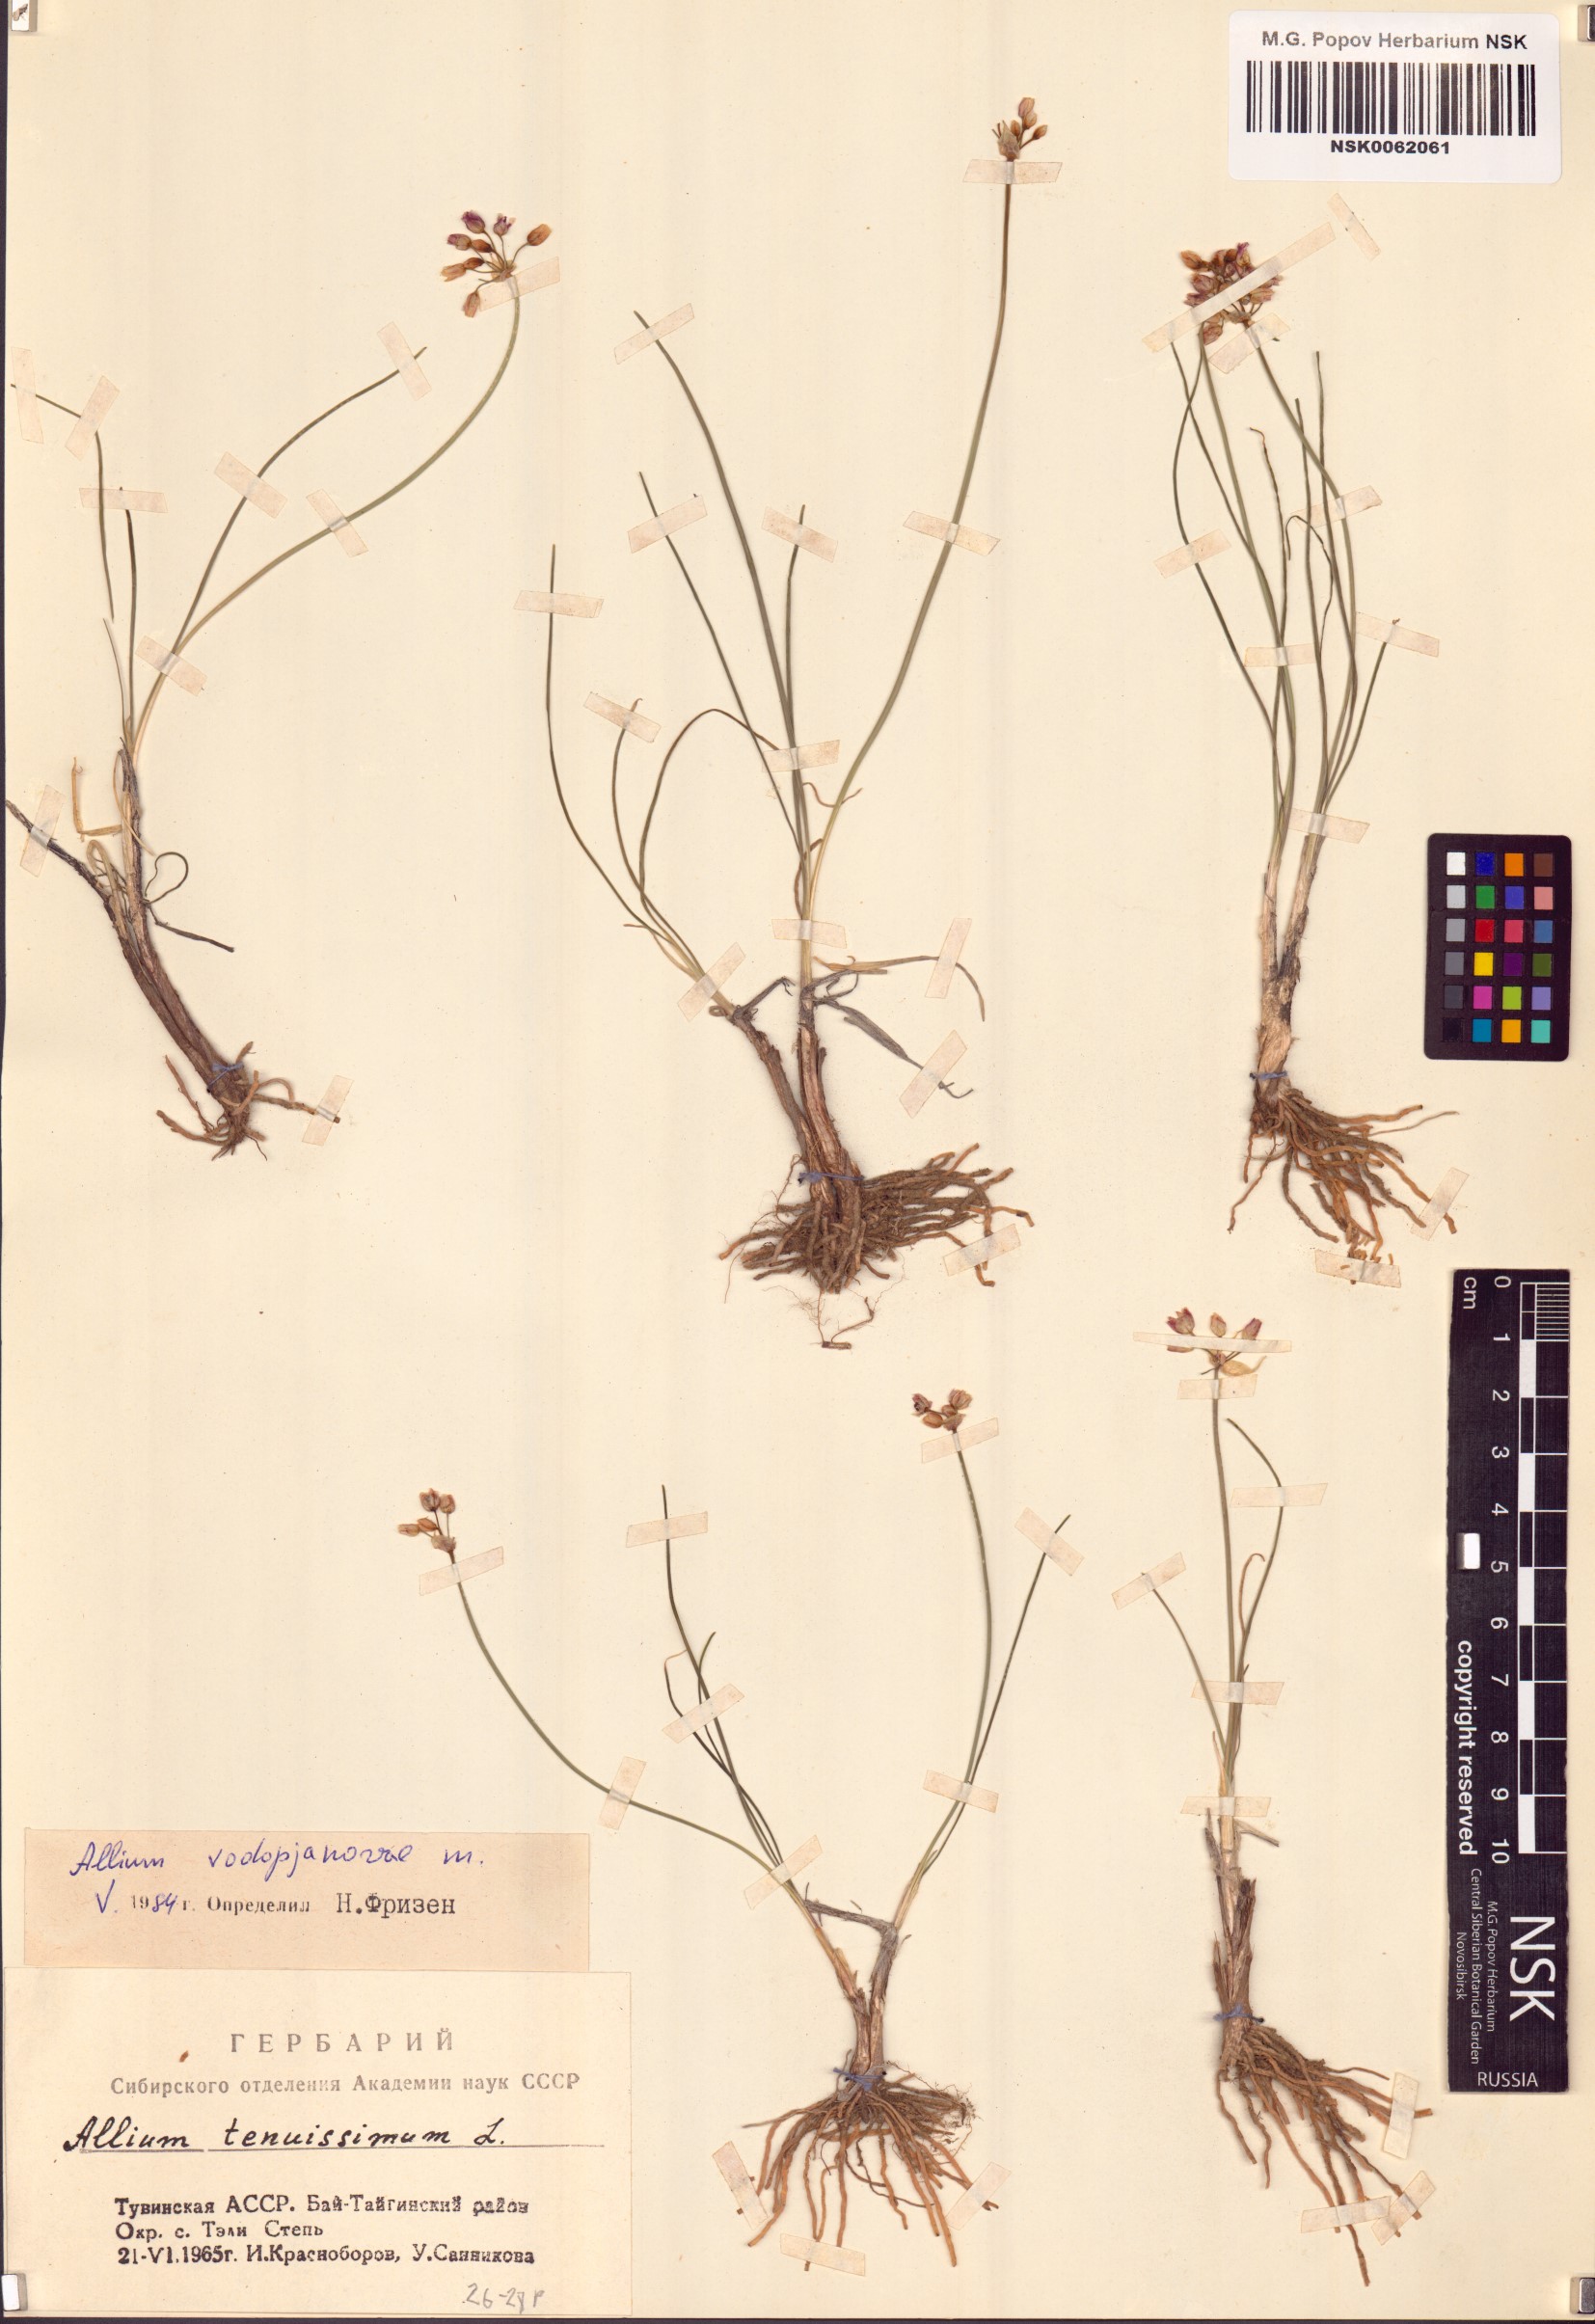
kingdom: Plantae
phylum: Tracheophyta
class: Liliopsida
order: Asparagales
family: Amaryllidaceae
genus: Allium
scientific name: Allium vodopjanovae
